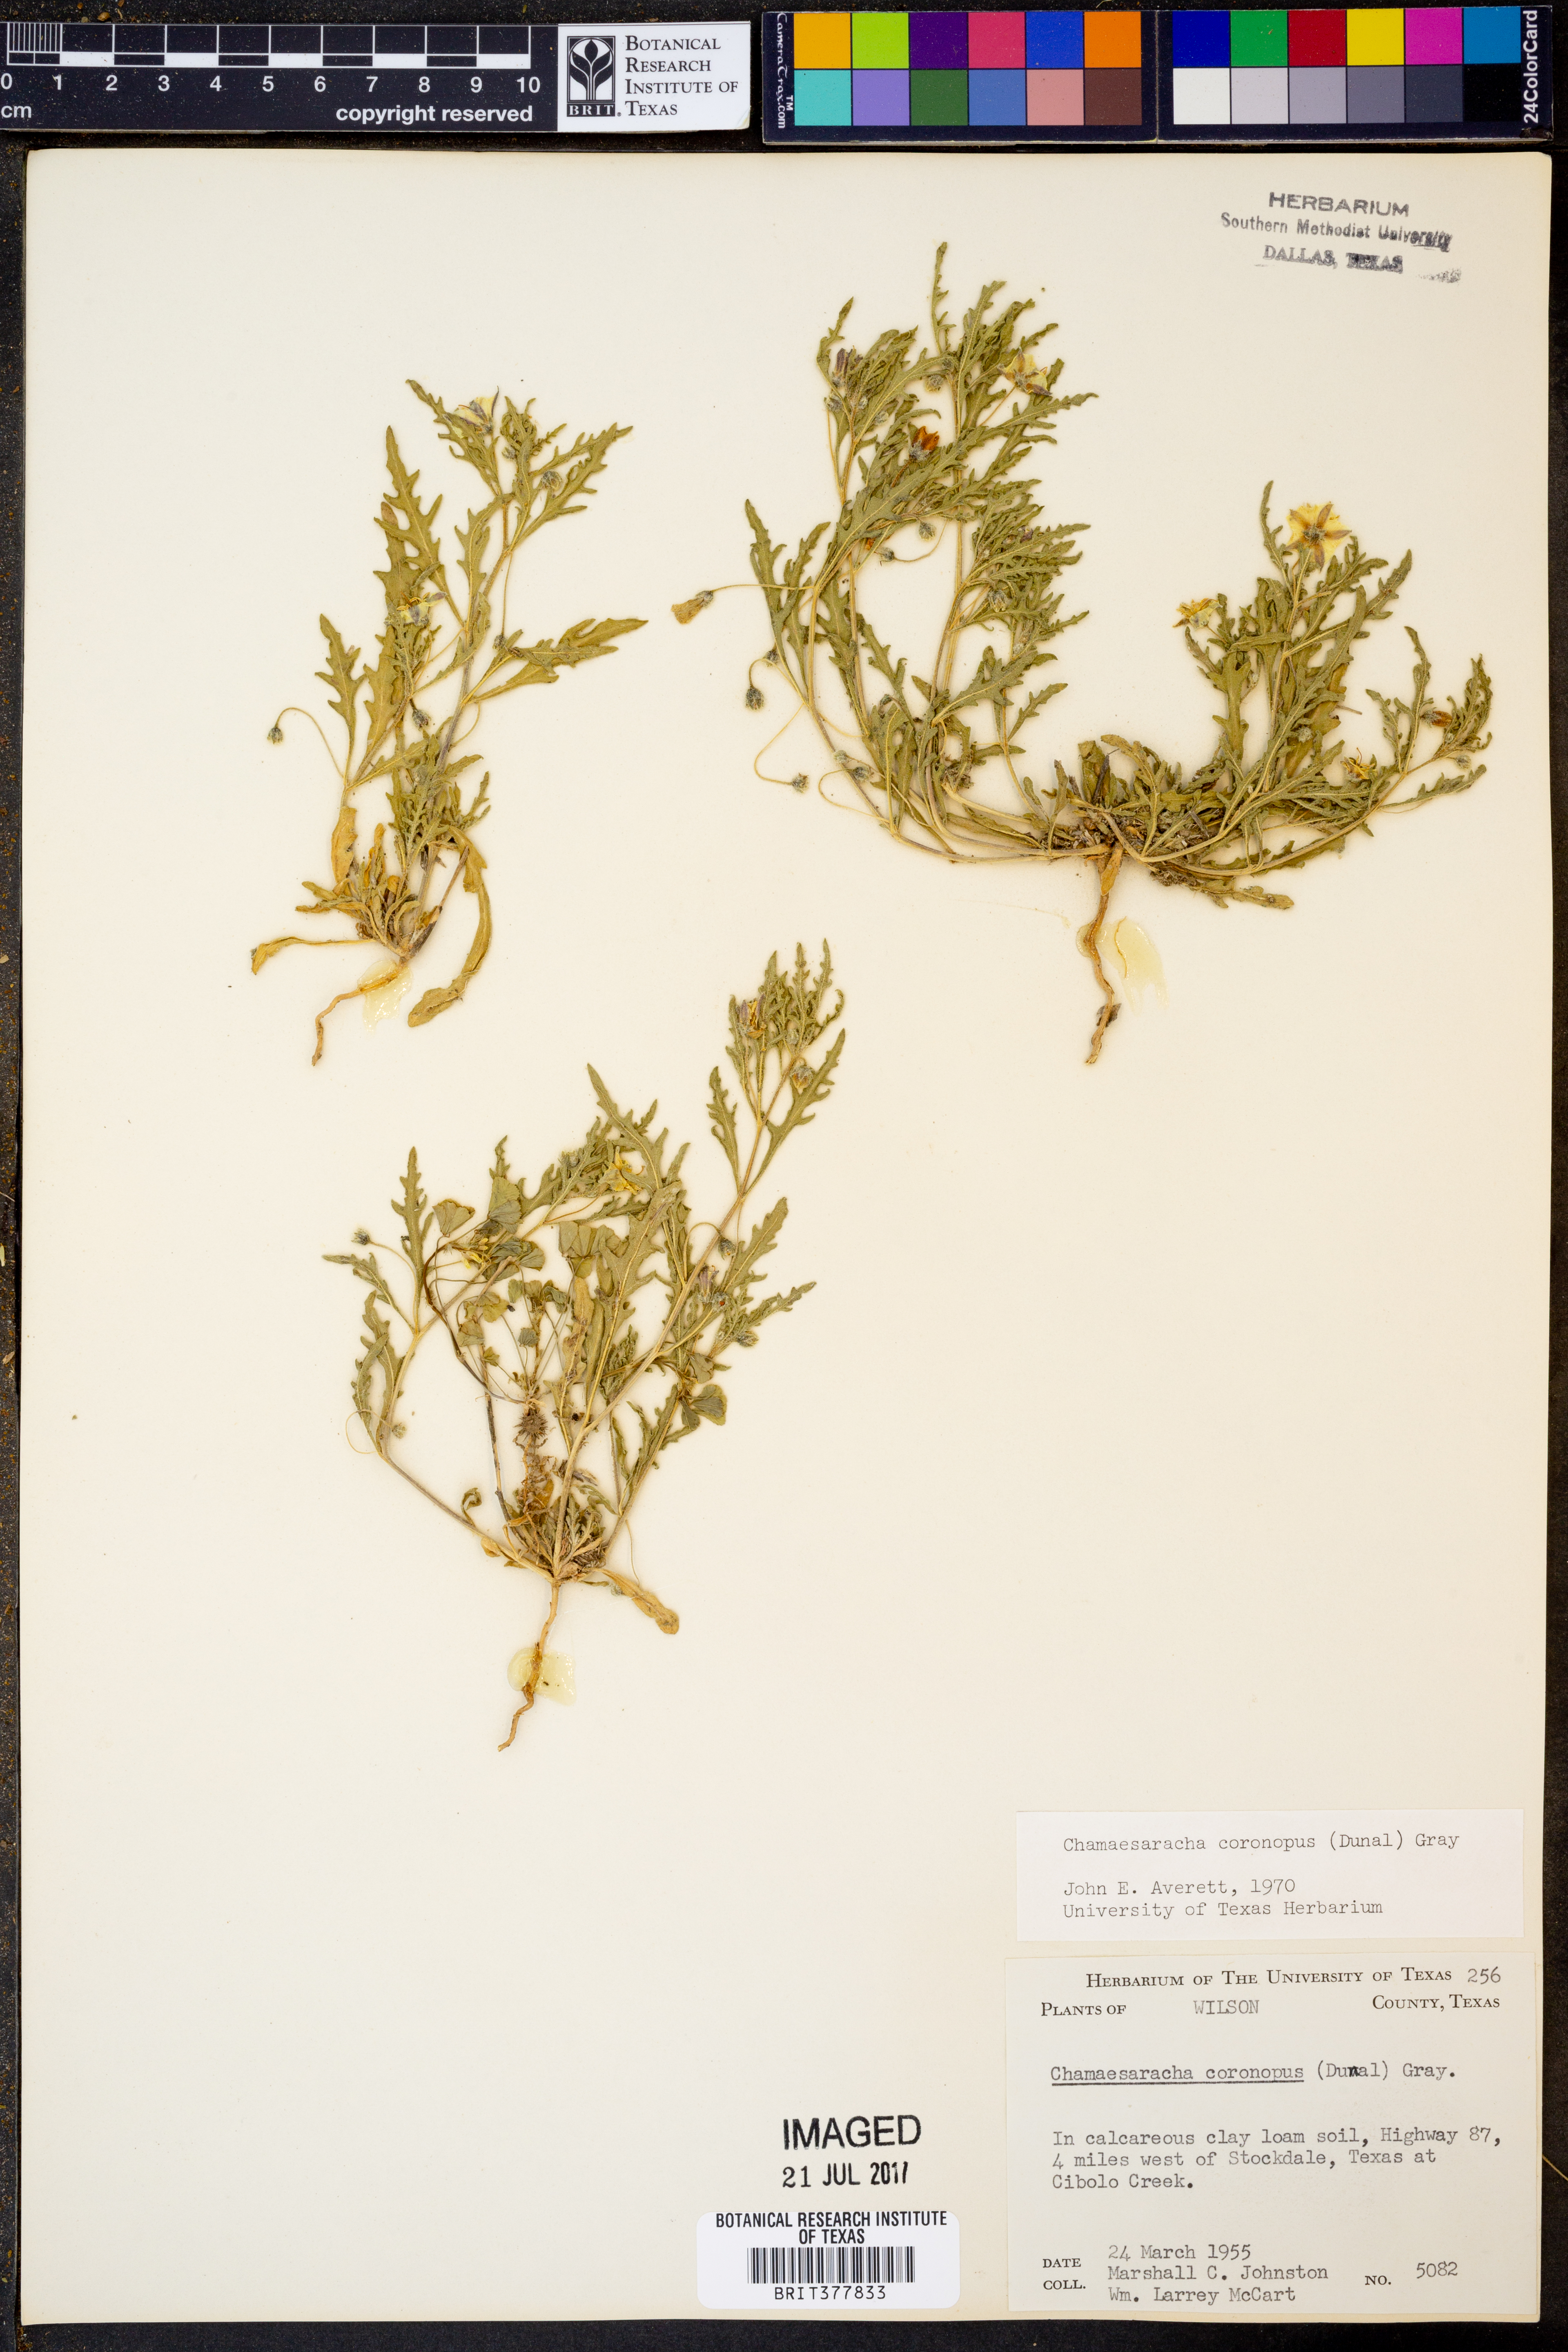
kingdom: Plantae
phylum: Tracheophyta
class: Magnoliopsida
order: Solanales
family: Solanaceae
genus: Chamaesaracha
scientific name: Chamaesaracha coronopus
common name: Smooth chamaesaracha
